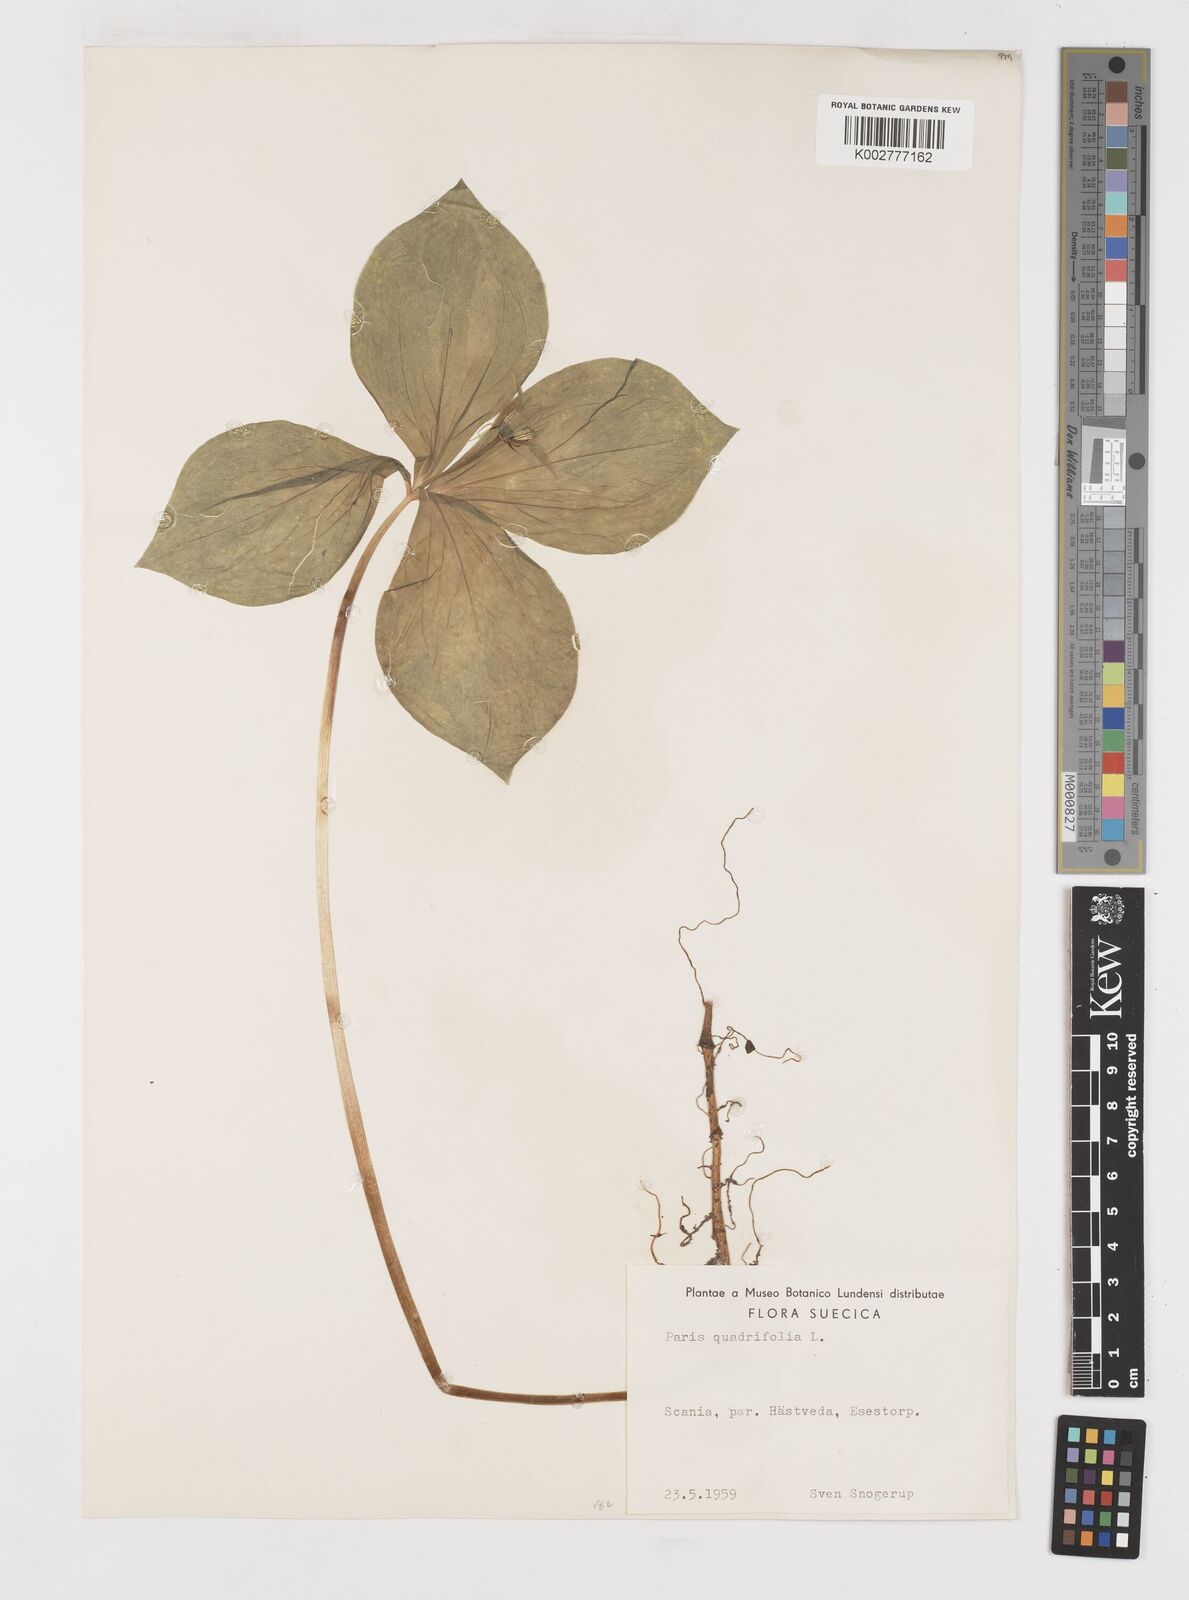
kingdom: Plantae
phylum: Tracheophyta
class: Liliopsida
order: Liliales
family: Melanthiaceae
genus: Paris
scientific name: Paris quadrifolia
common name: Herb-paris
